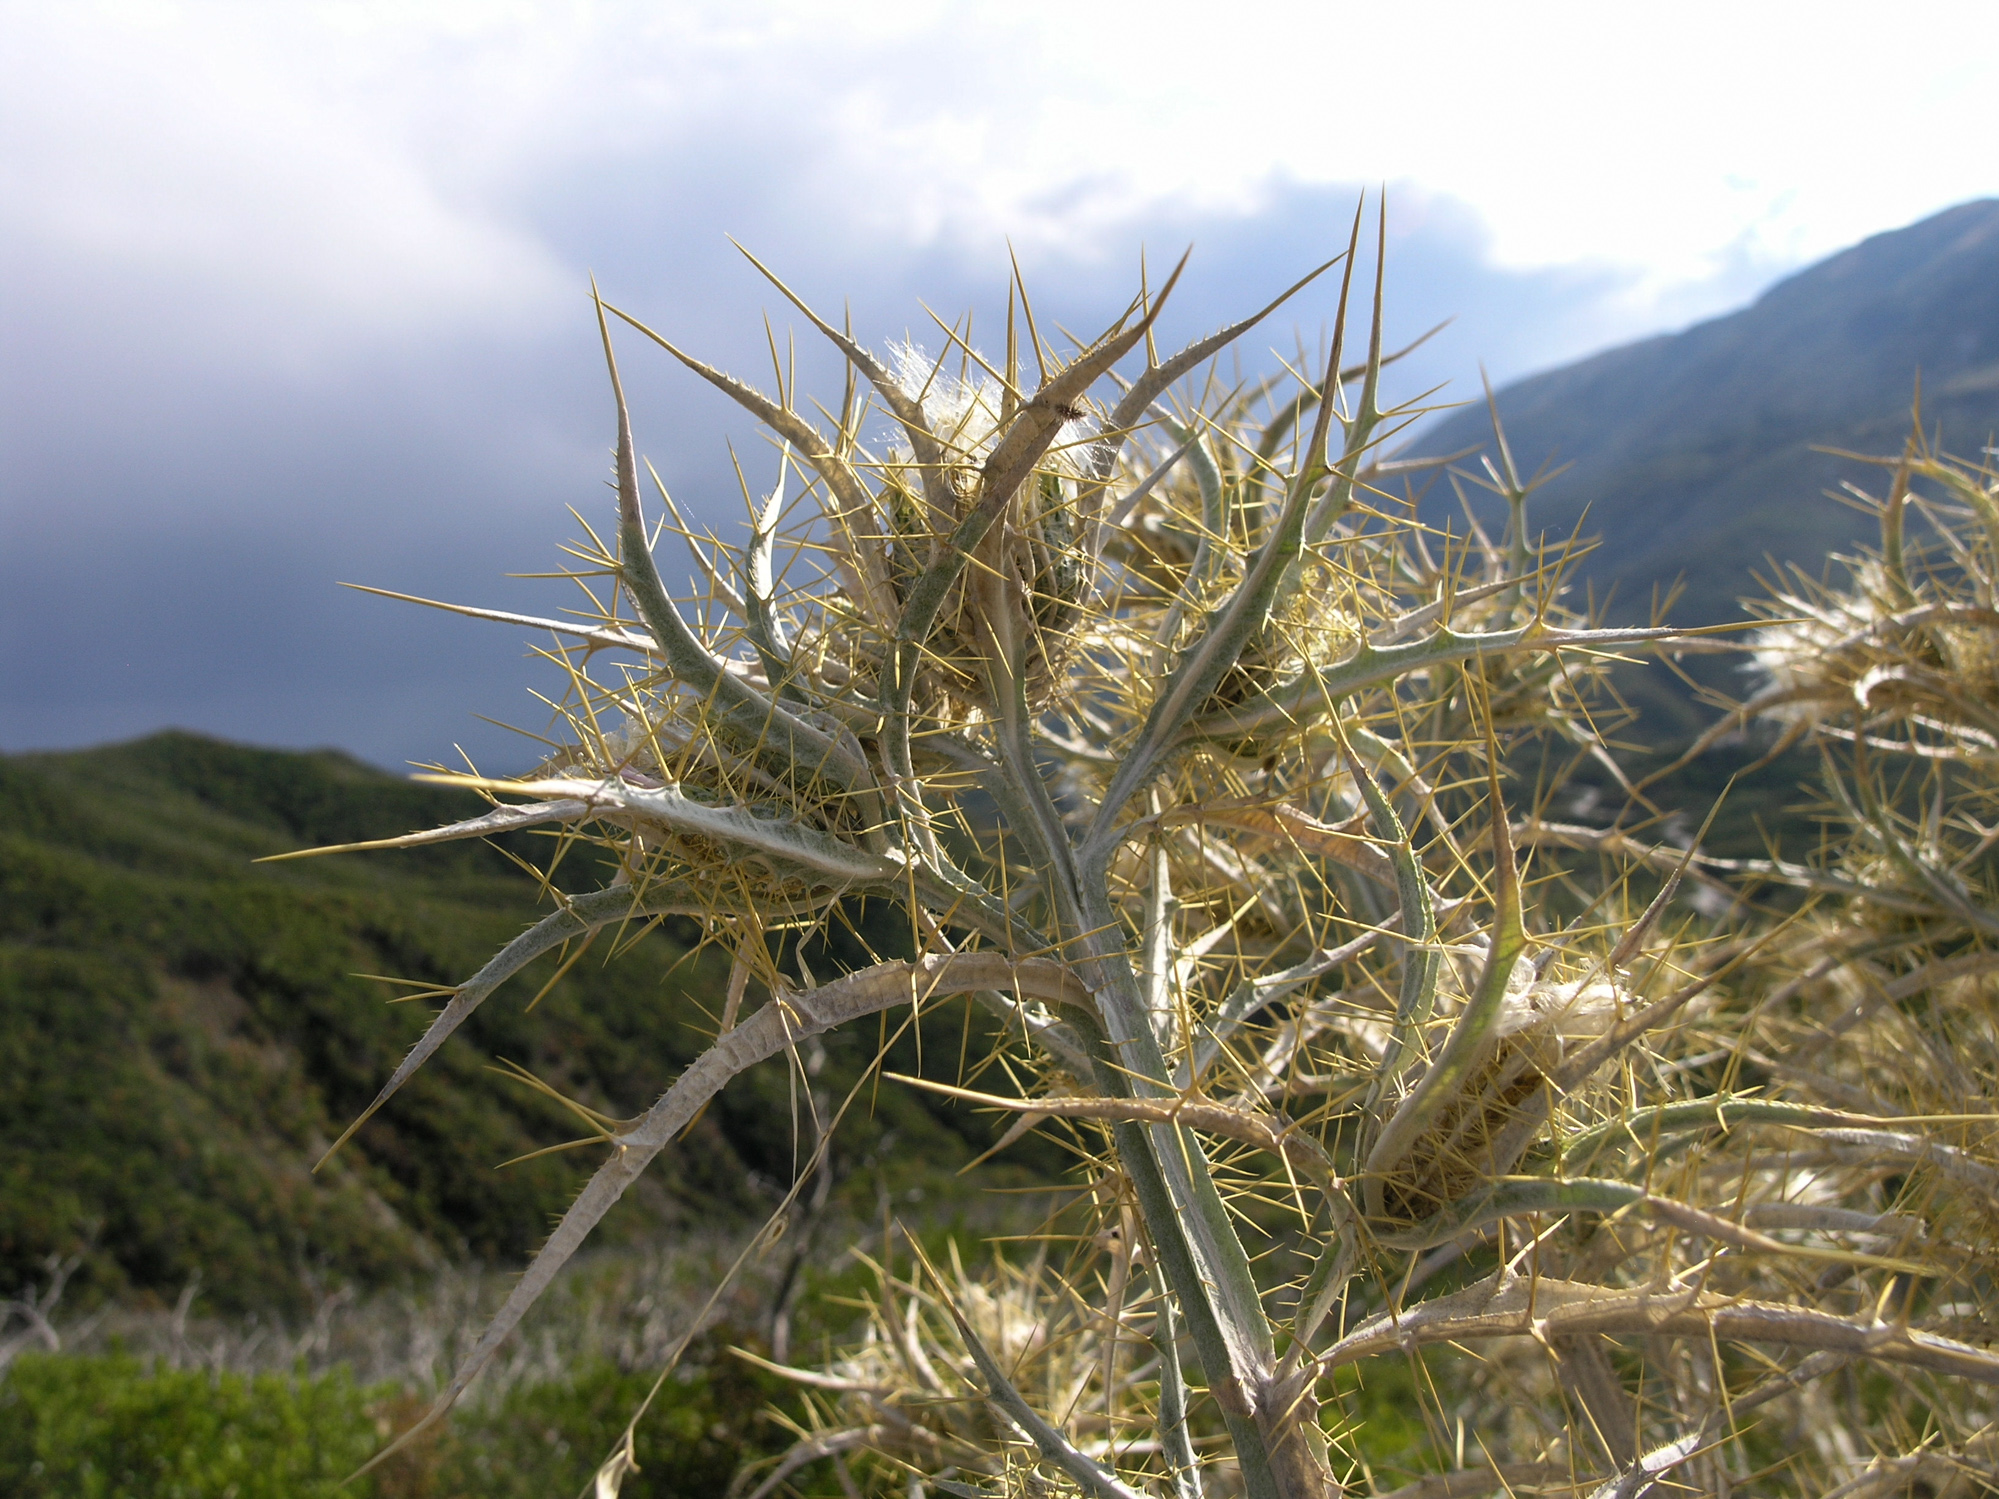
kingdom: Plantae
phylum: Tracheophyta
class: Magnoliopsida
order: Asterales
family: Asteraceae
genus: Picnomon
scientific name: Picnomon acarna
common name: Soldier thistle
